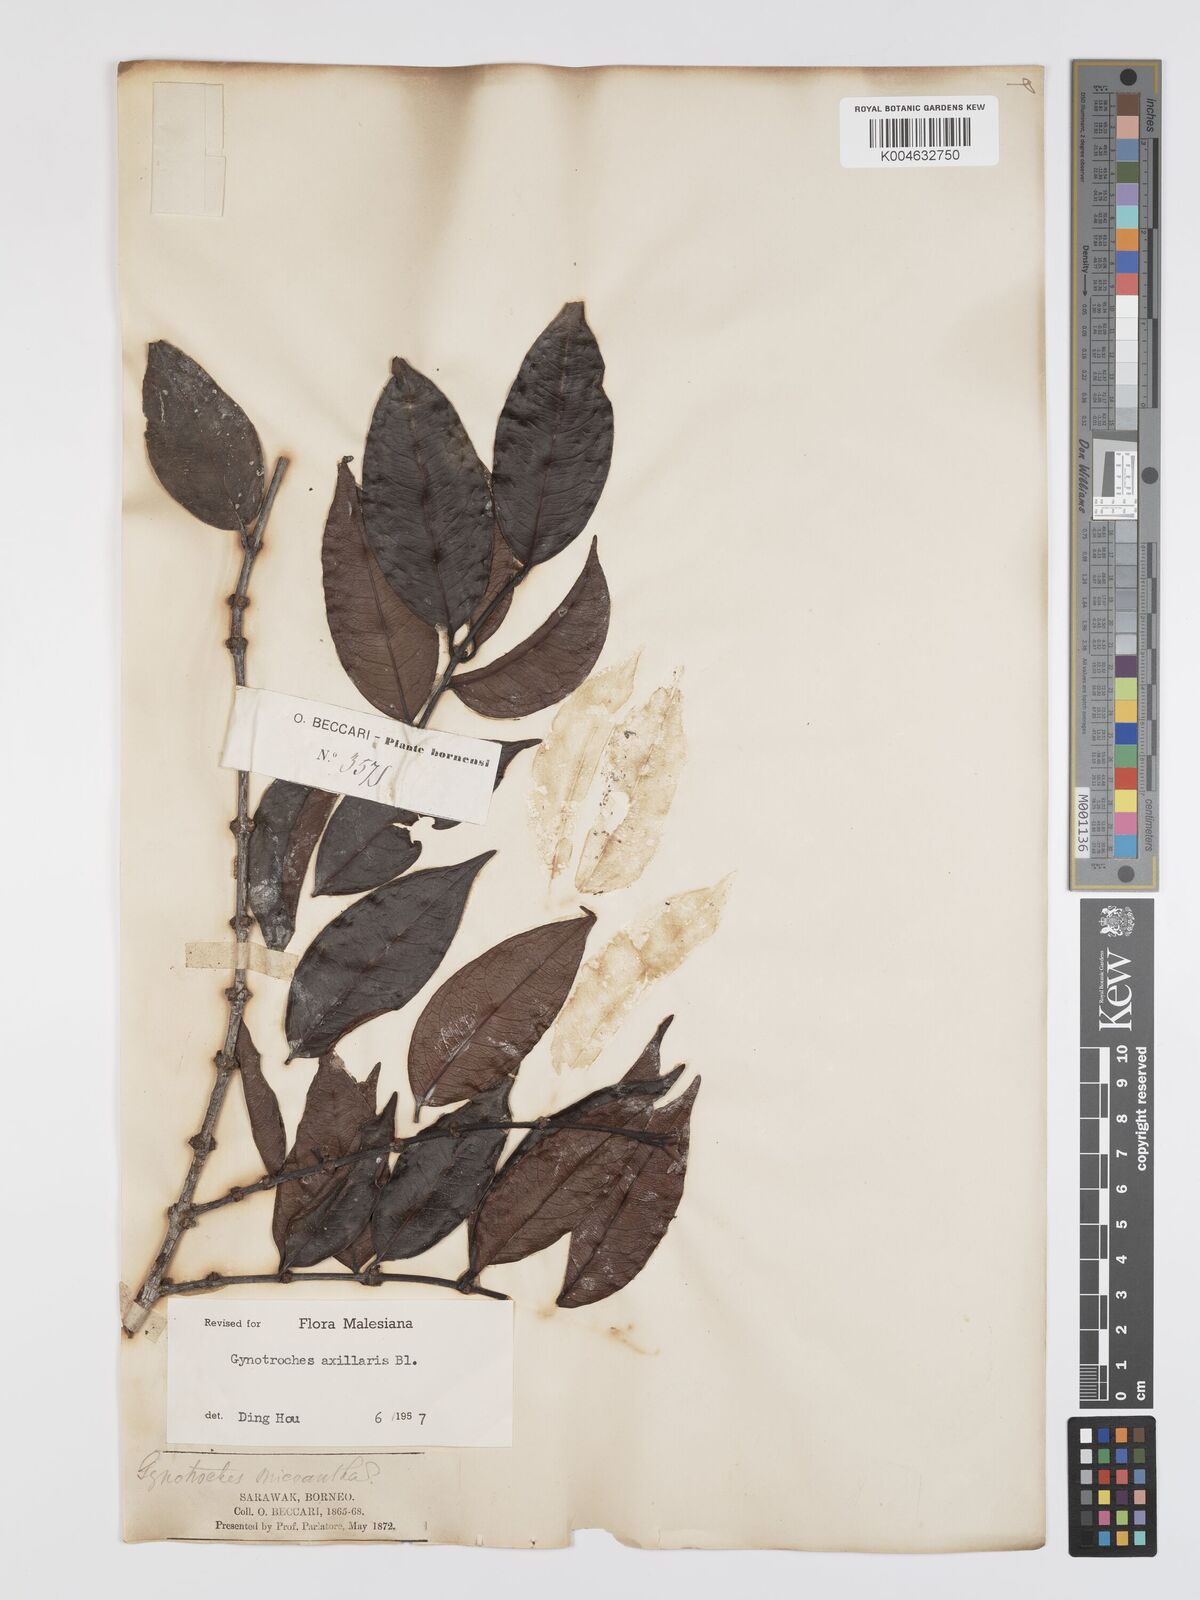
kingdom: Plantae
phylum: Tracheophyta
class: Magnoliopsida
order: Malpighiales
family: Rhizophoraceae
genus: Gynotroches
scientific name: Gynotroches axillaris
